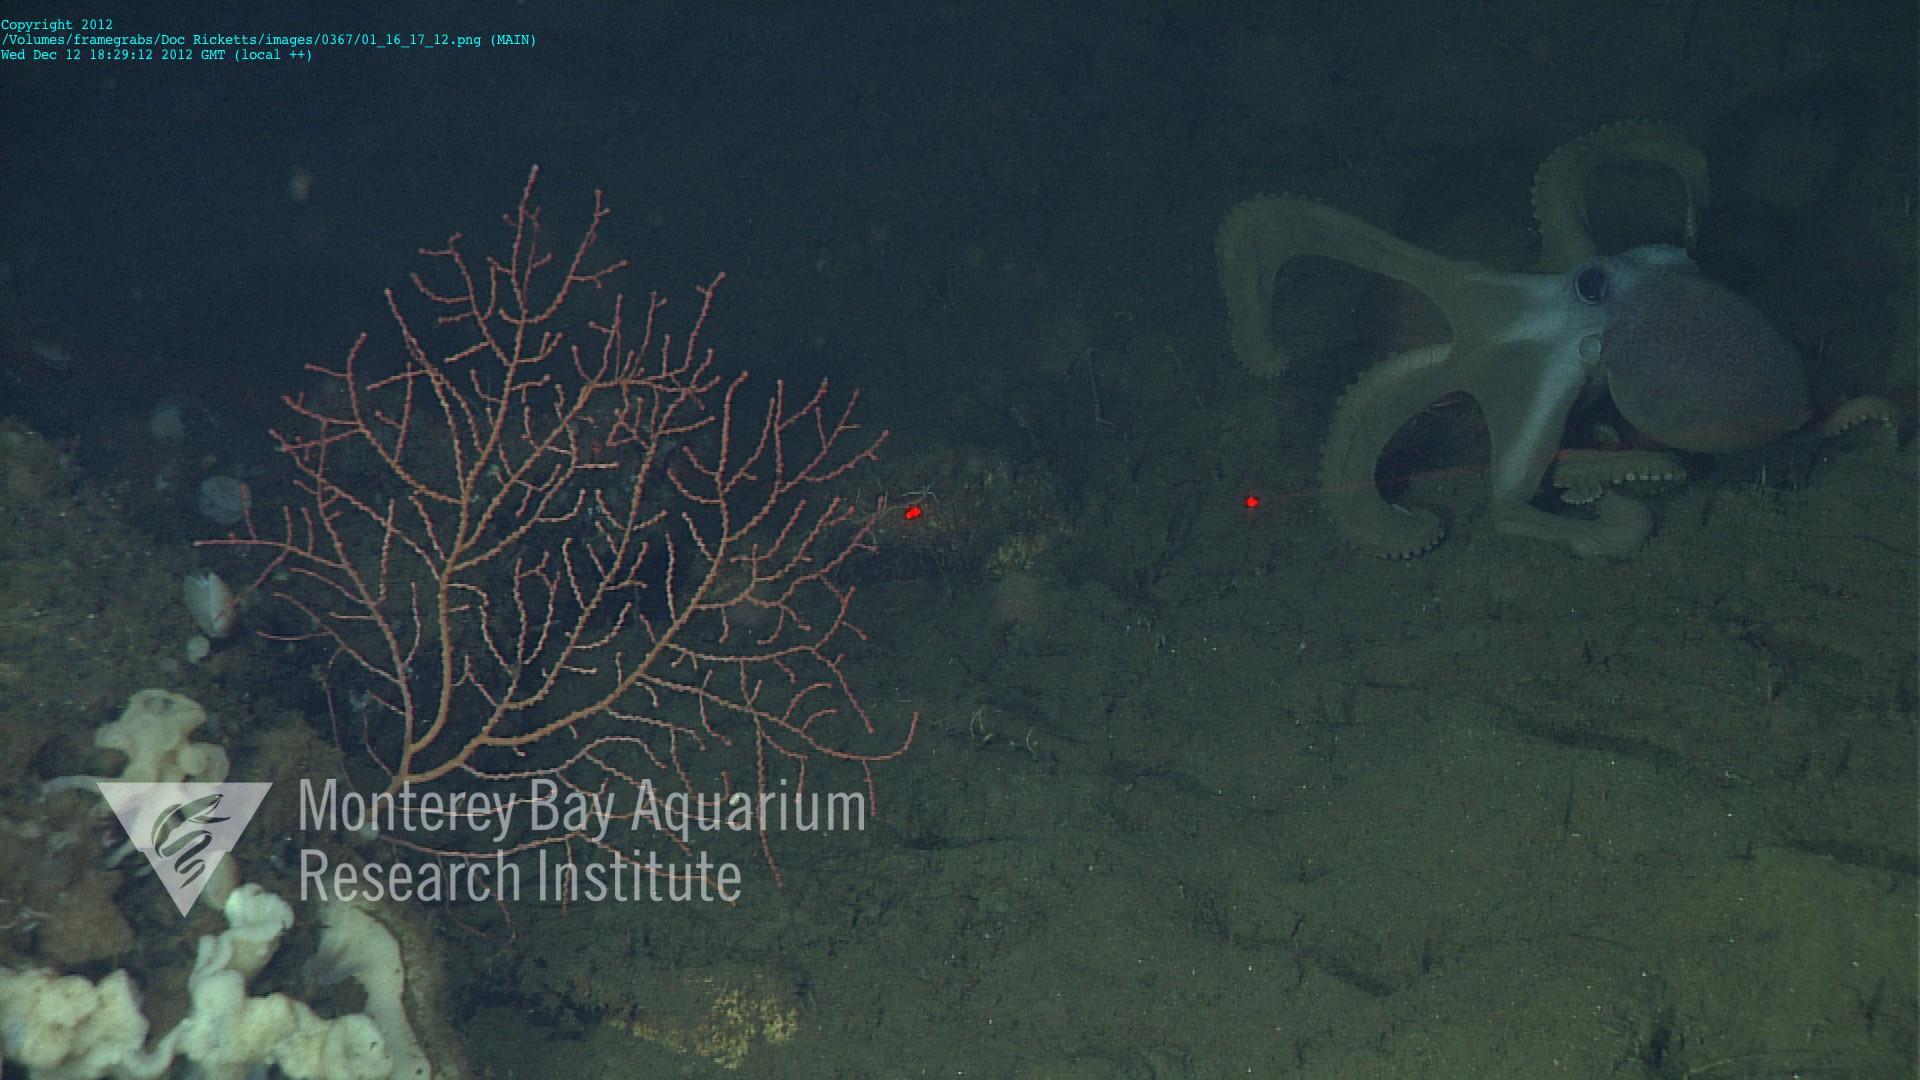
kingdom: Animalia
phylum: Cnidaria
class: Anthozoa
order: Malacalcyonacea
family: Plexauridae
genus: Swiftia
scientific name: Swiftia
